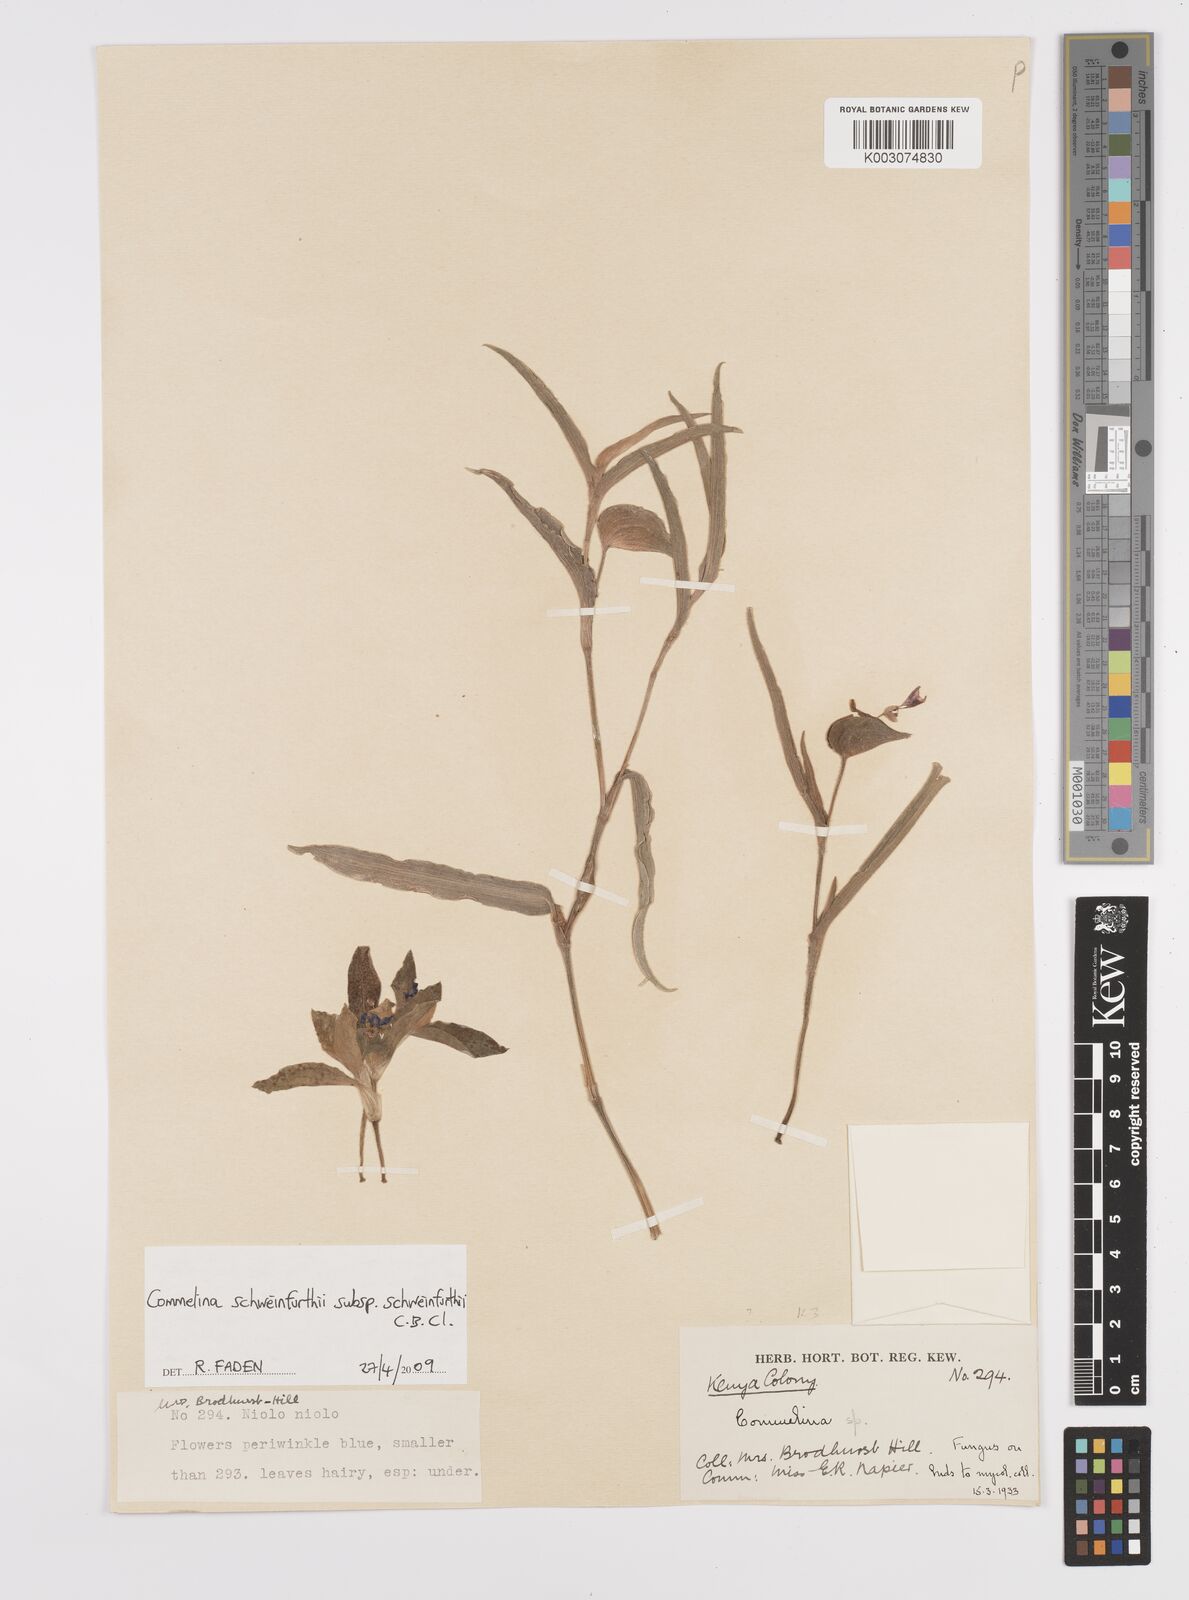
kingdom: Plantae
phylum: Tracheophyta
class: Liliopsida
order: Commelinales
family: Commelinaceae
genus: Commelina
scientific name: Commelina schweinfurthii
